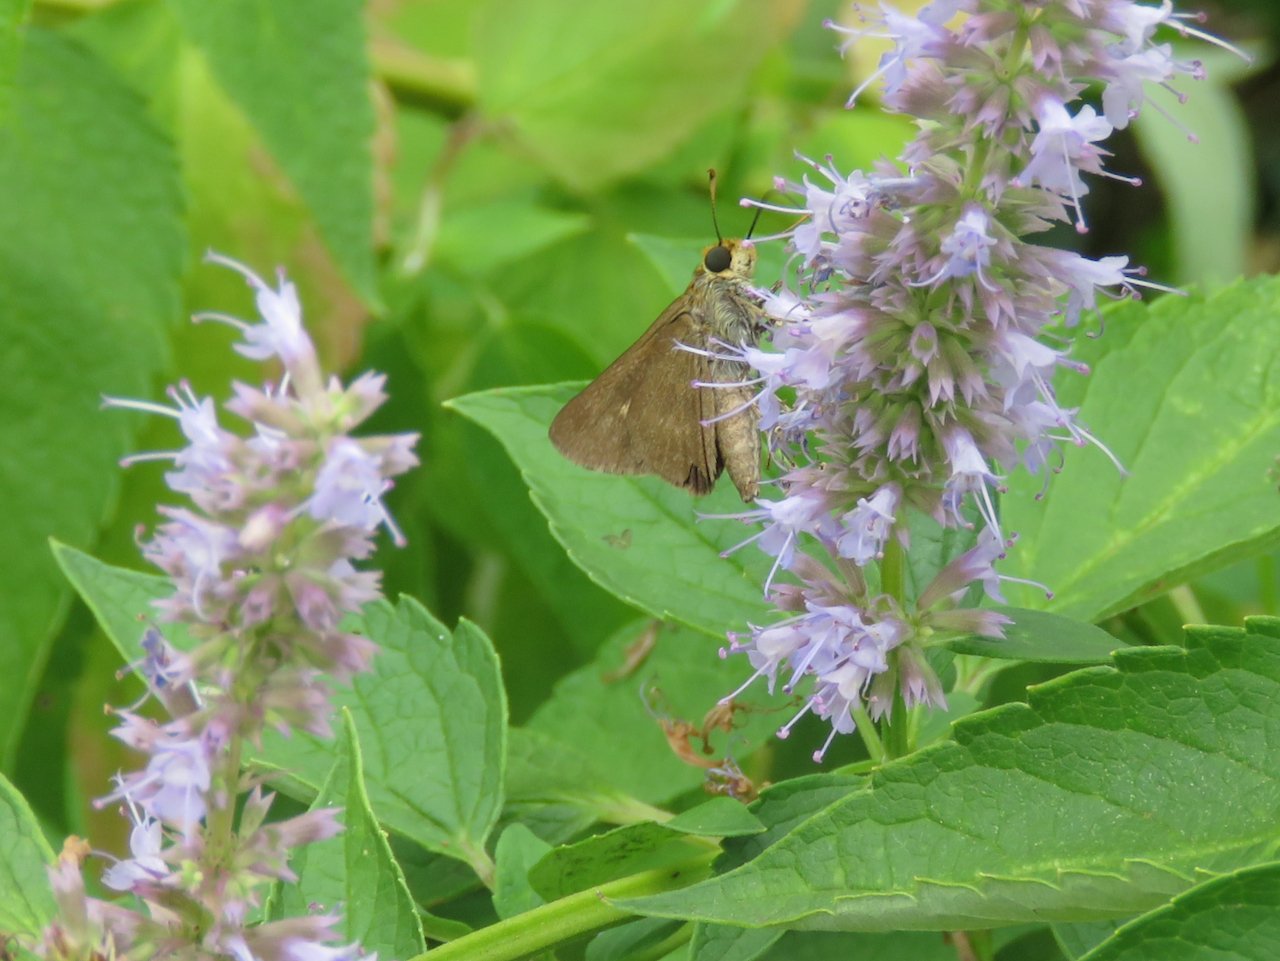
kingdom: Animalia
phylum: Arthropoda
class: Insecta
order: Lepidoptera
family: Hesperiidae
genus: Euphyes
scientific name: Euphyes vestris
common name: Dun Skipper
